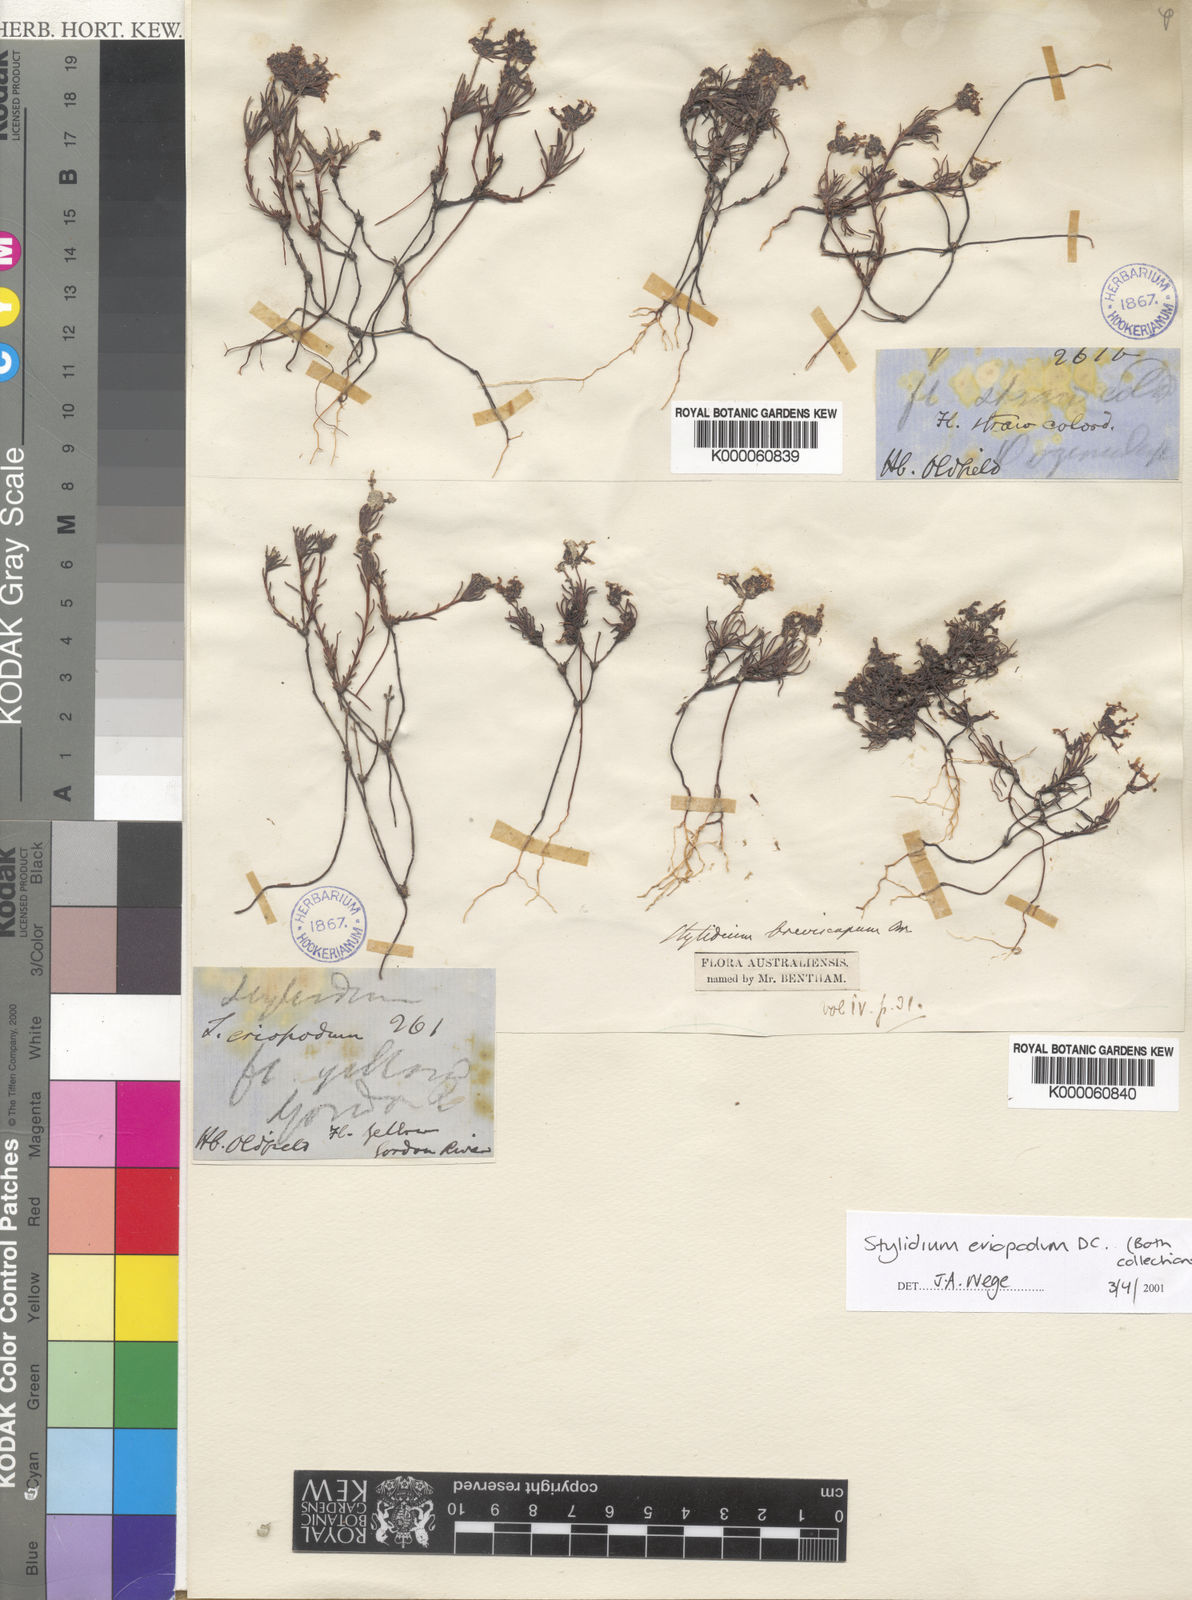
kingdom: Plantae
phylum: Tracheophyta
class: Magnoliopsida
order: Asterales
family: Stylidiaceae
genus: Stylidium
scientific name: Stylidium breviscapum
